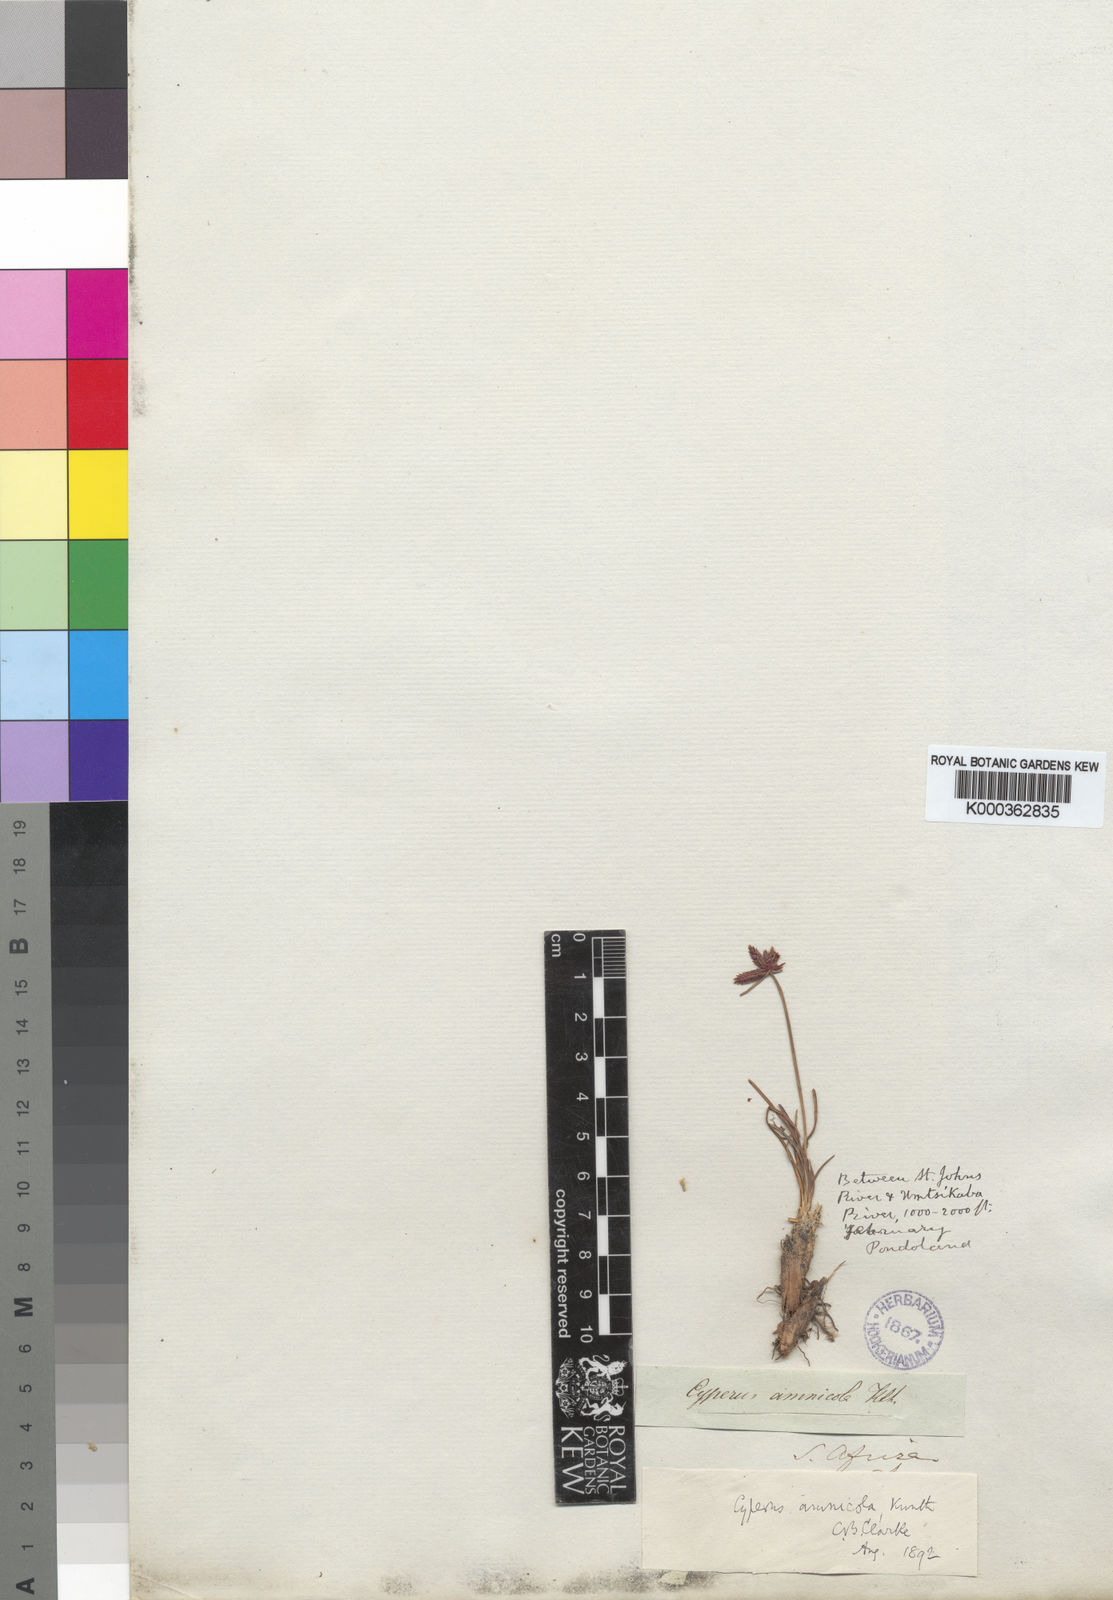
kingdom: Plantae
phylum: Tracheophyta
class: Liliopsida
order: Poales
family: Cyperaceae
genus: Cyperus
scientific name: Cyperus rupestris
